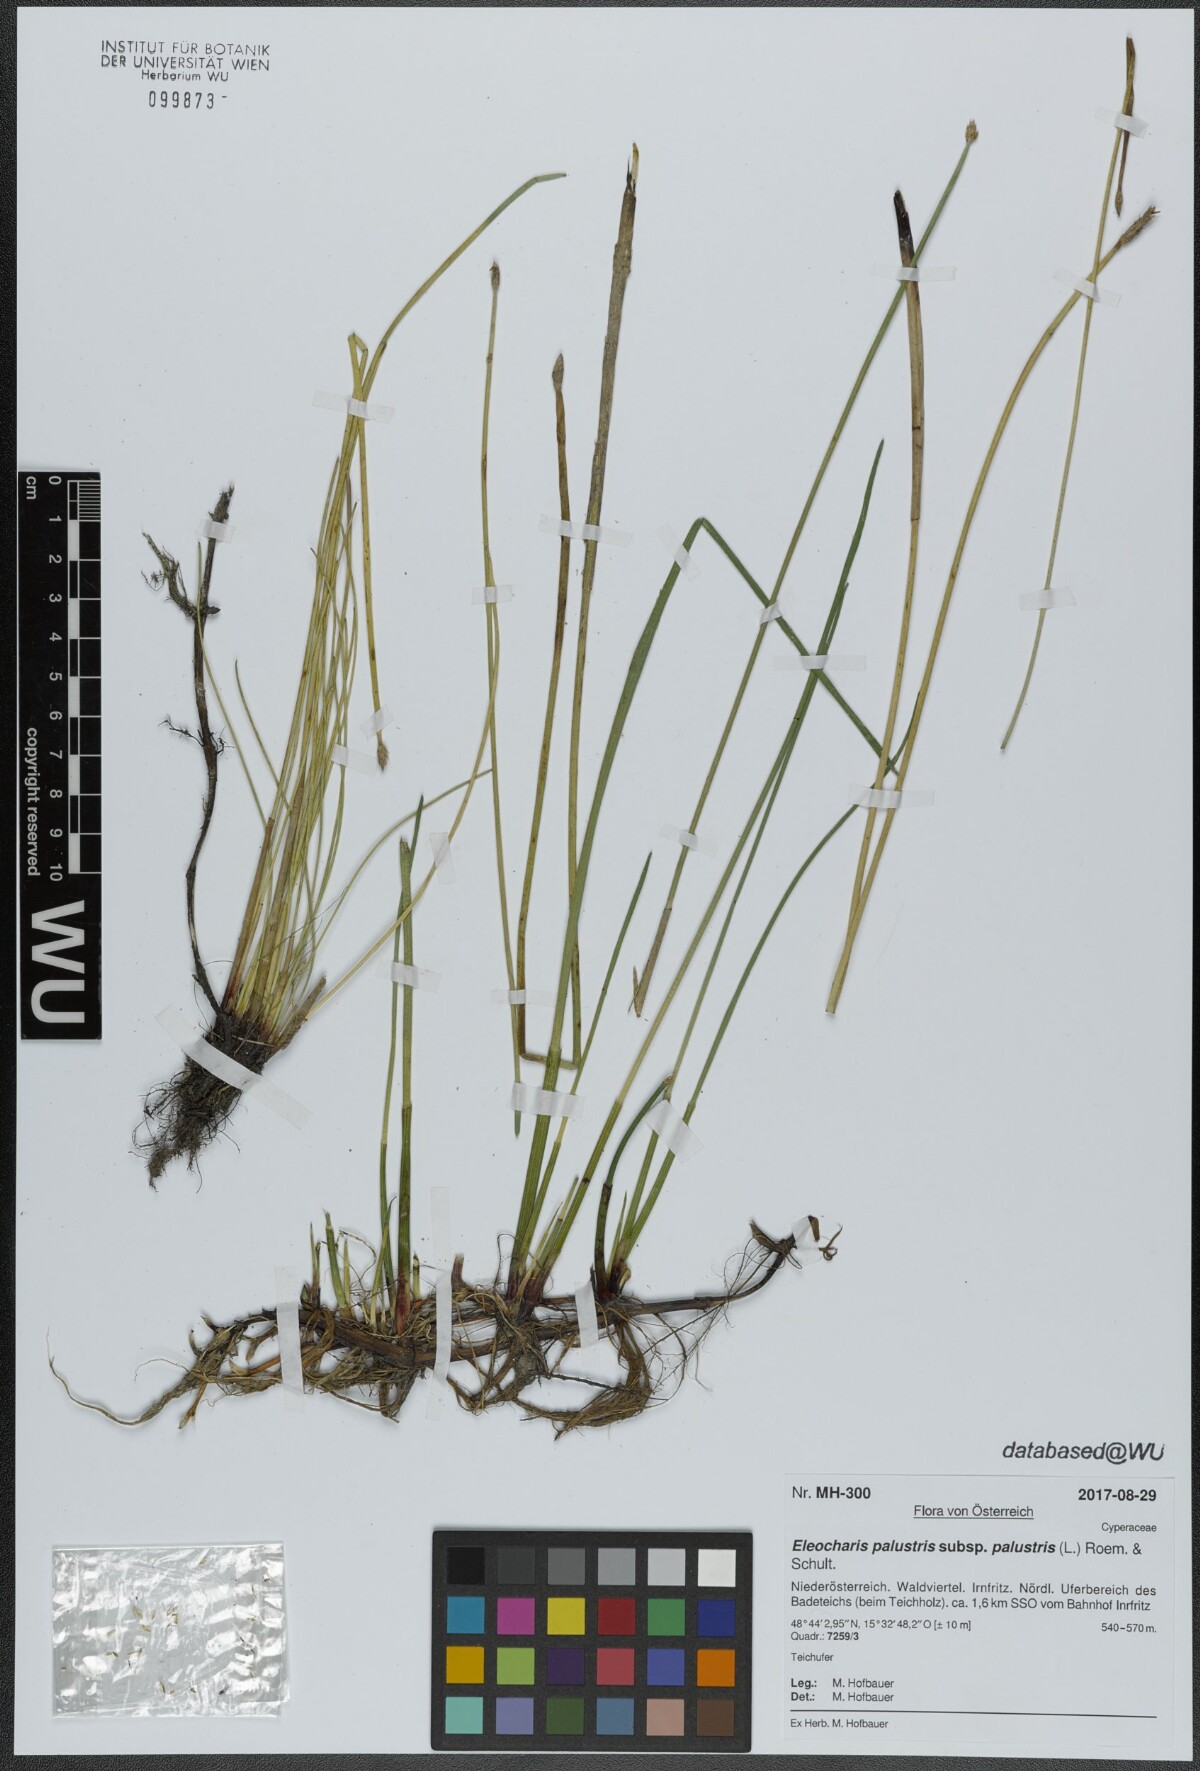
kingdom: Plantae
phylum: Tracheophyta
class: Liliopsida
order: Poales
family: Cyperaceae
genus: Eleocharis
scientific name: Eleocharis palustris
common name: Common spike-rush
